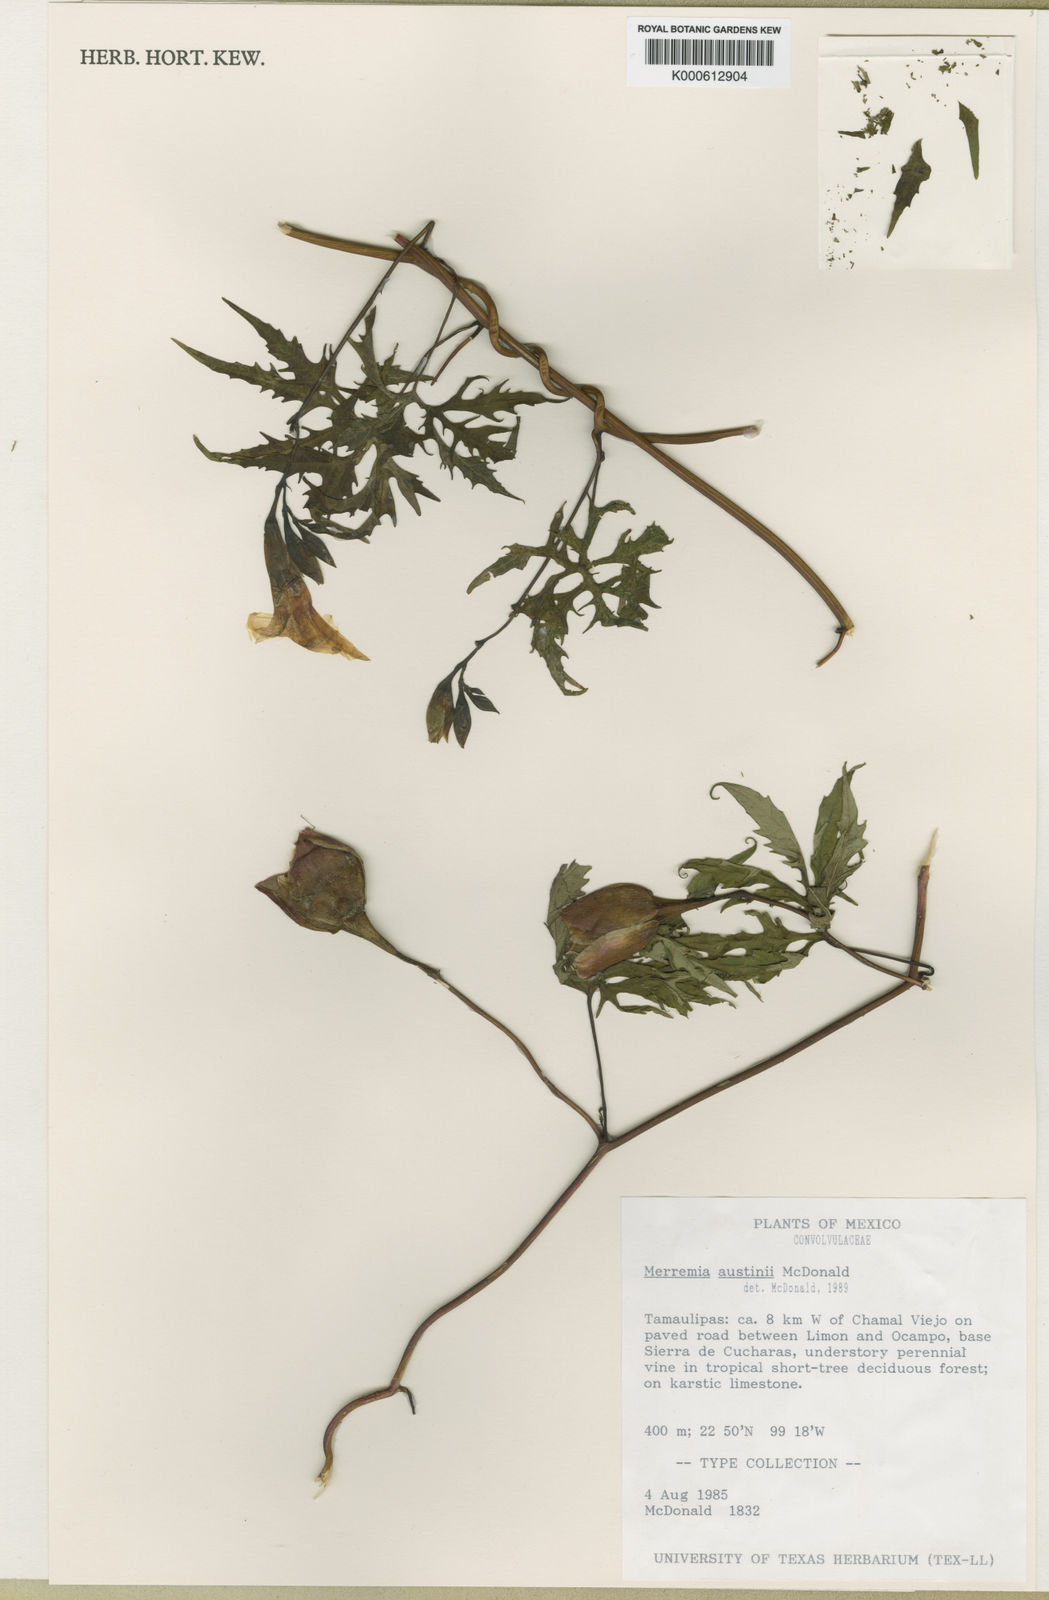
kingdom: Plantae
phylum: Tracheophyta
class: Magnoliopsida
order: Solanales
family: Convolvulaceae
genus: Distimake
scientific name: Distimake austinii
